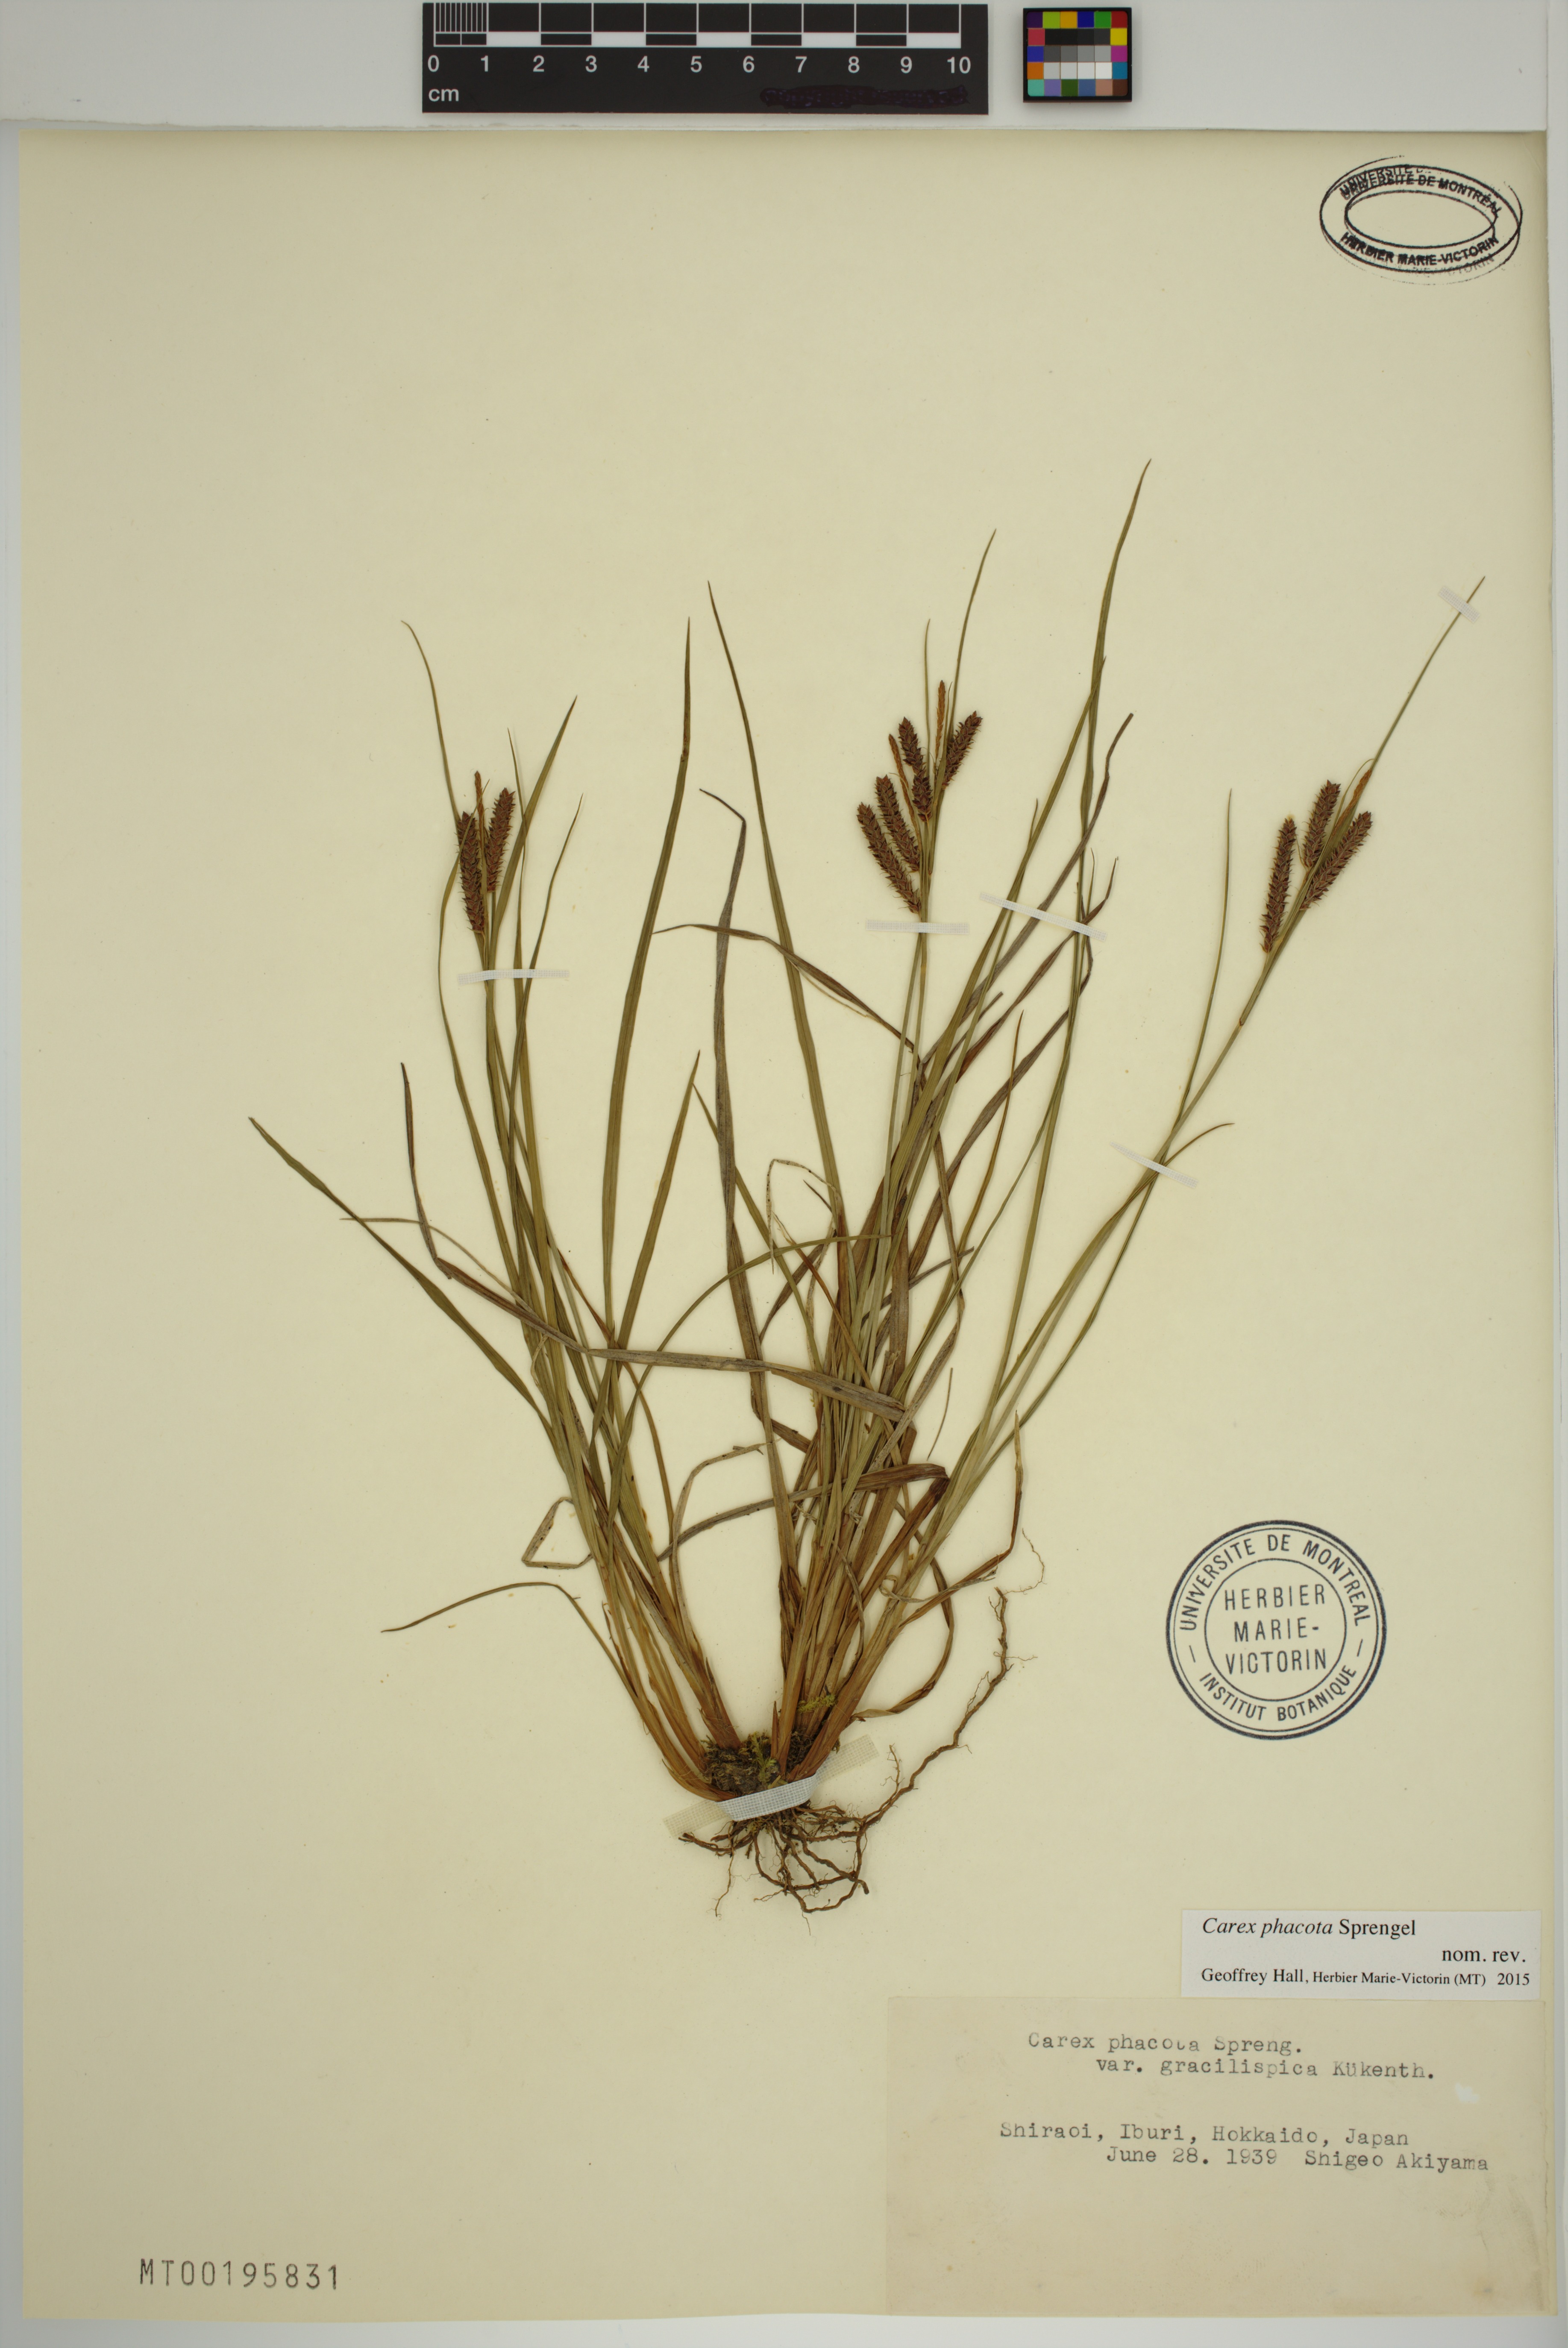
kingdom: Plantae
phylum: Tracheophyta
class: Liliopsida
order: Poales
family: Cyperaceae
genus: Carex
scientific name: Carex phacota
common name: Lakeshore sedge
